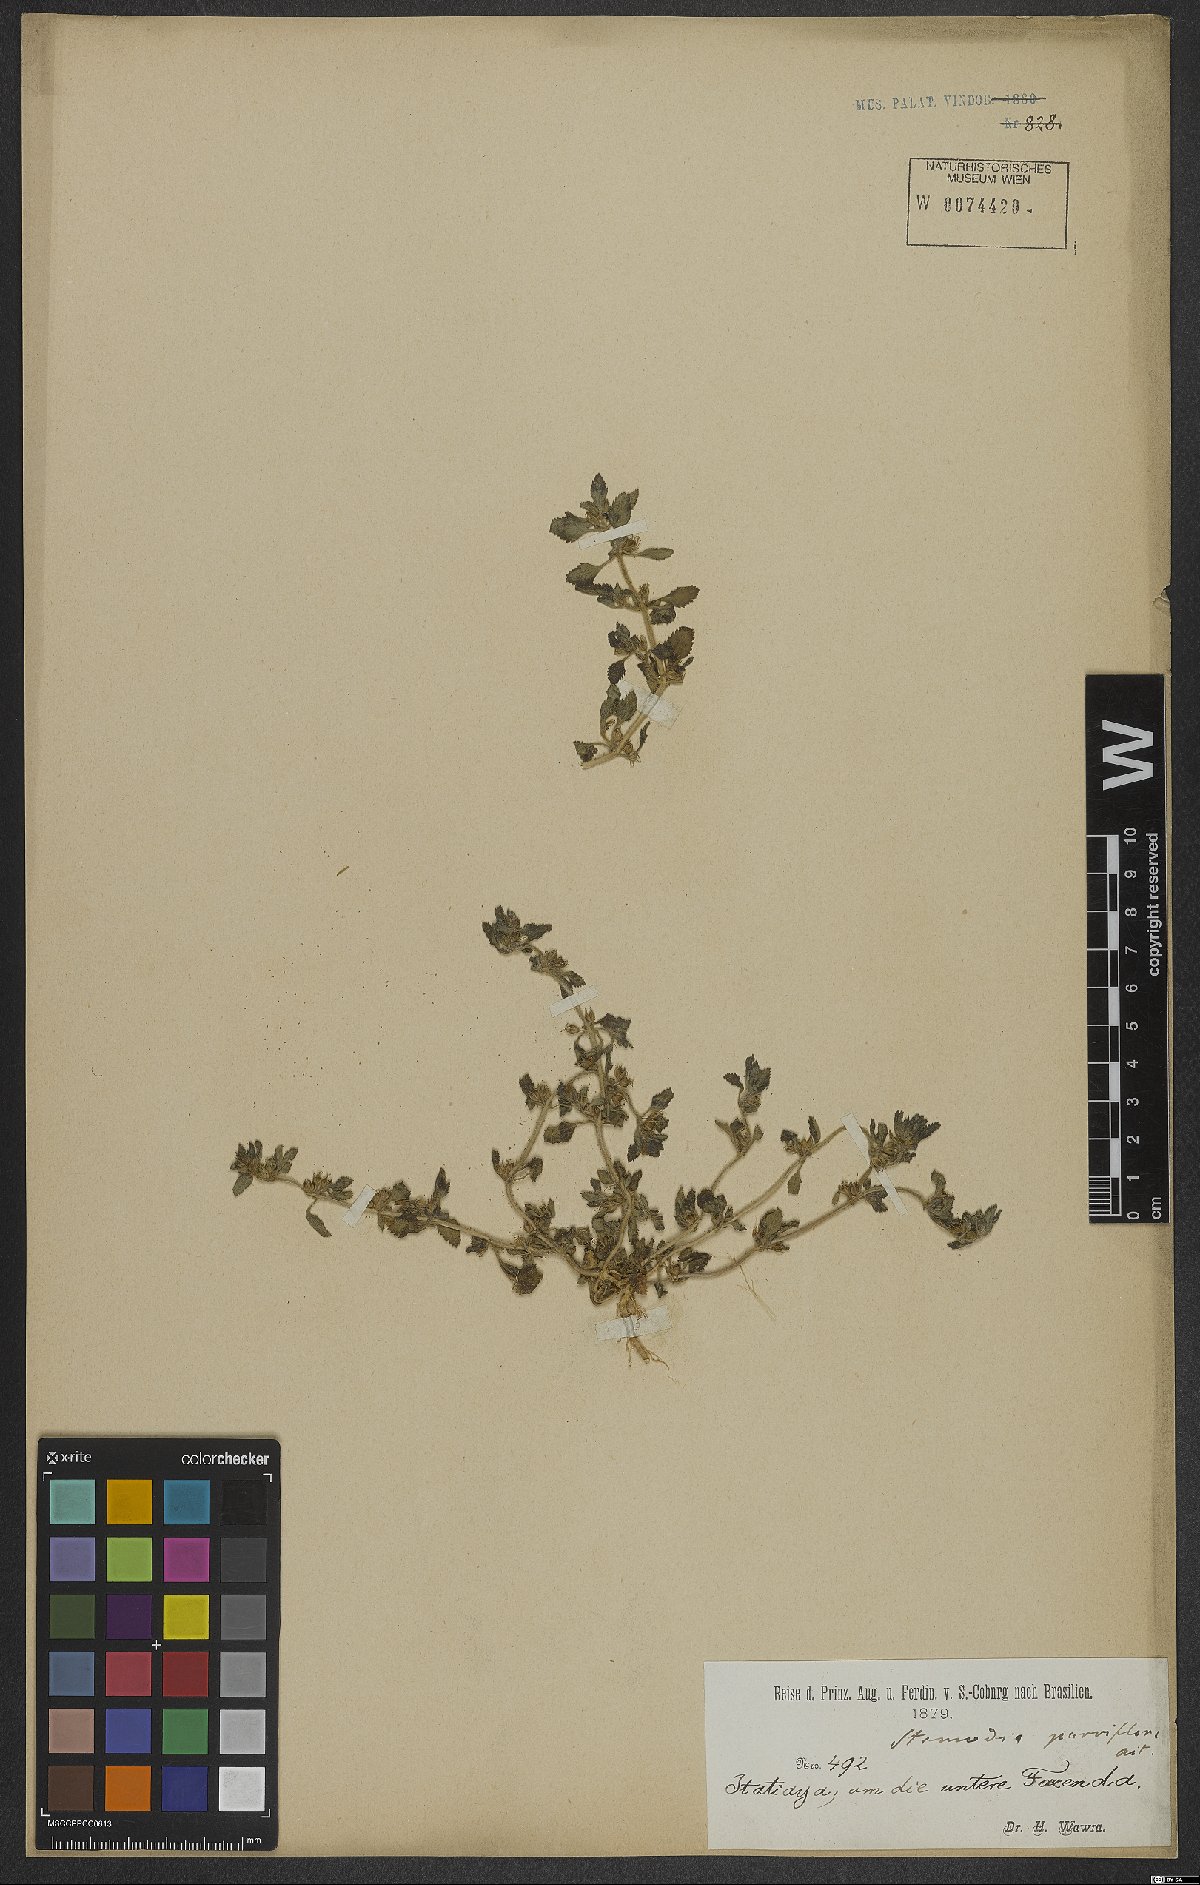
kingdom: Plantae
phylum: Tracheophyta
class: Magnoliopsida
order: Lamiales
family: Plantaginaceae
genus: Stemodia
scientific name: Stemodia verticillata
